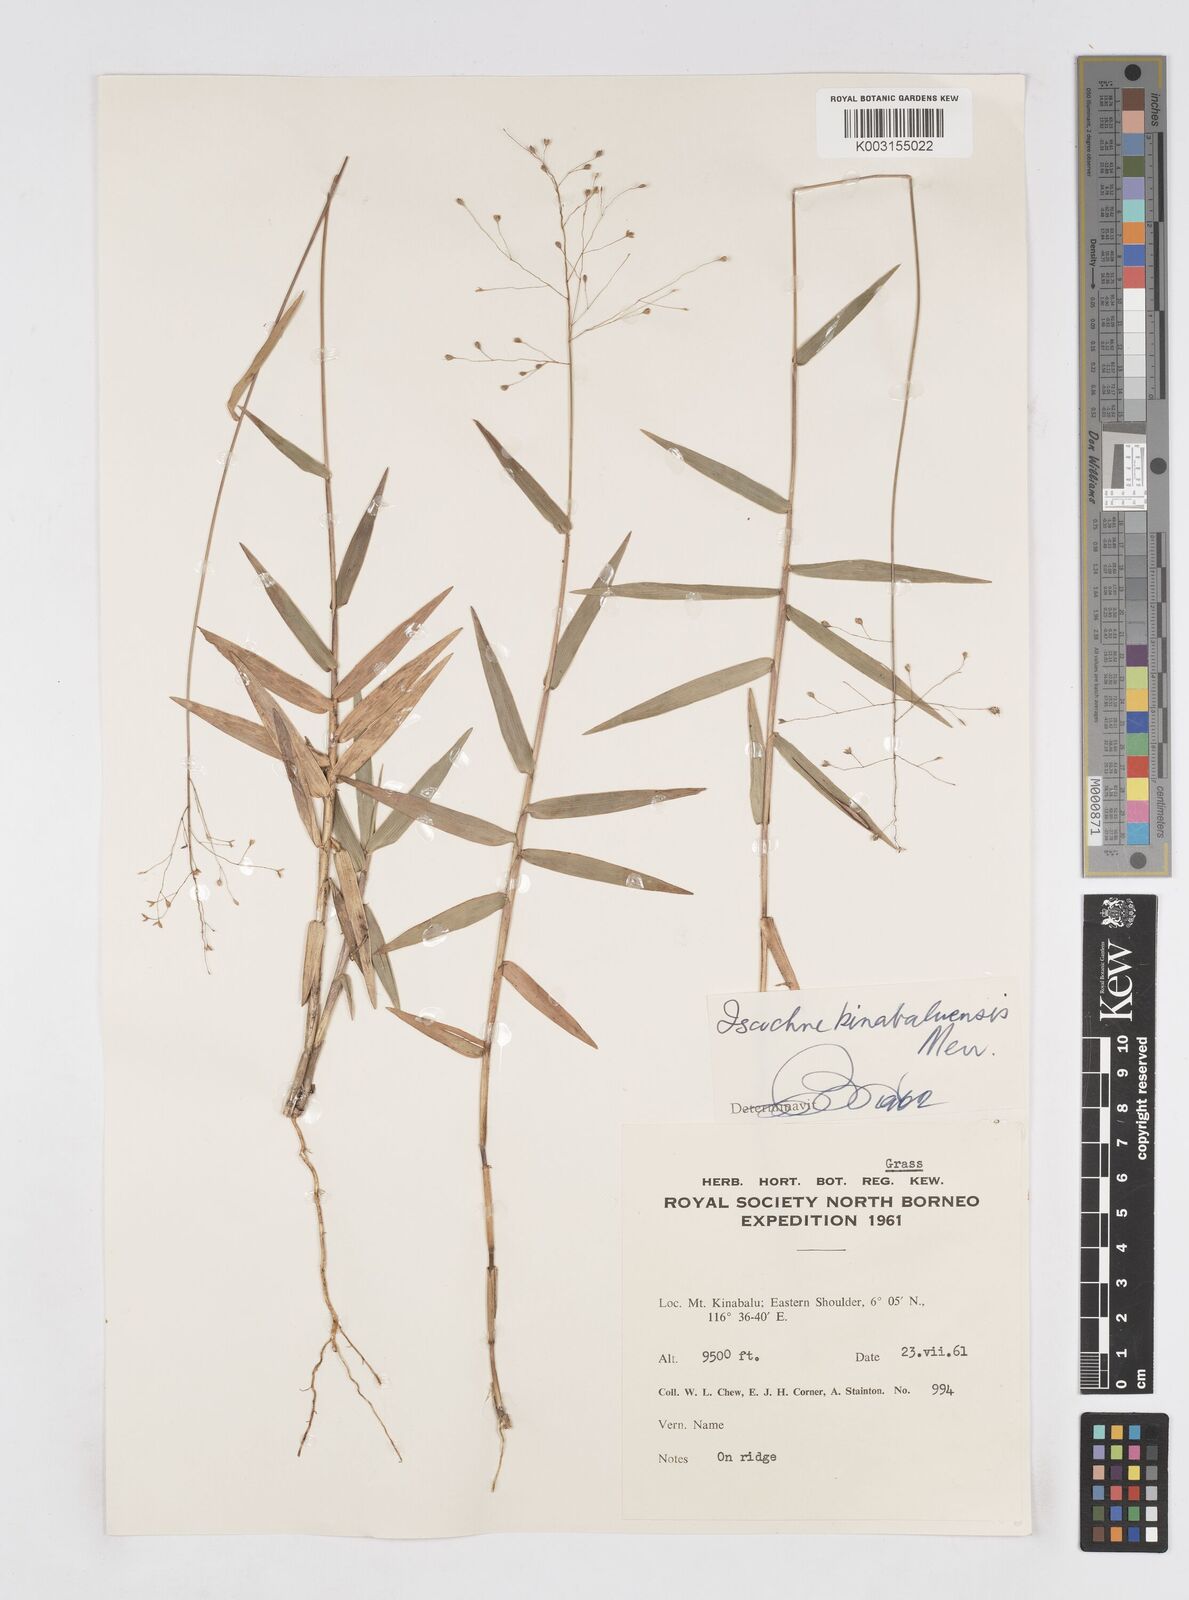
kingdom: Plantae
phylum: Tracheophyta
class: Liliopsida
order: Poales
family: Poaceae
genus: Isachne
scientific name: Isachne kinabaluensis
